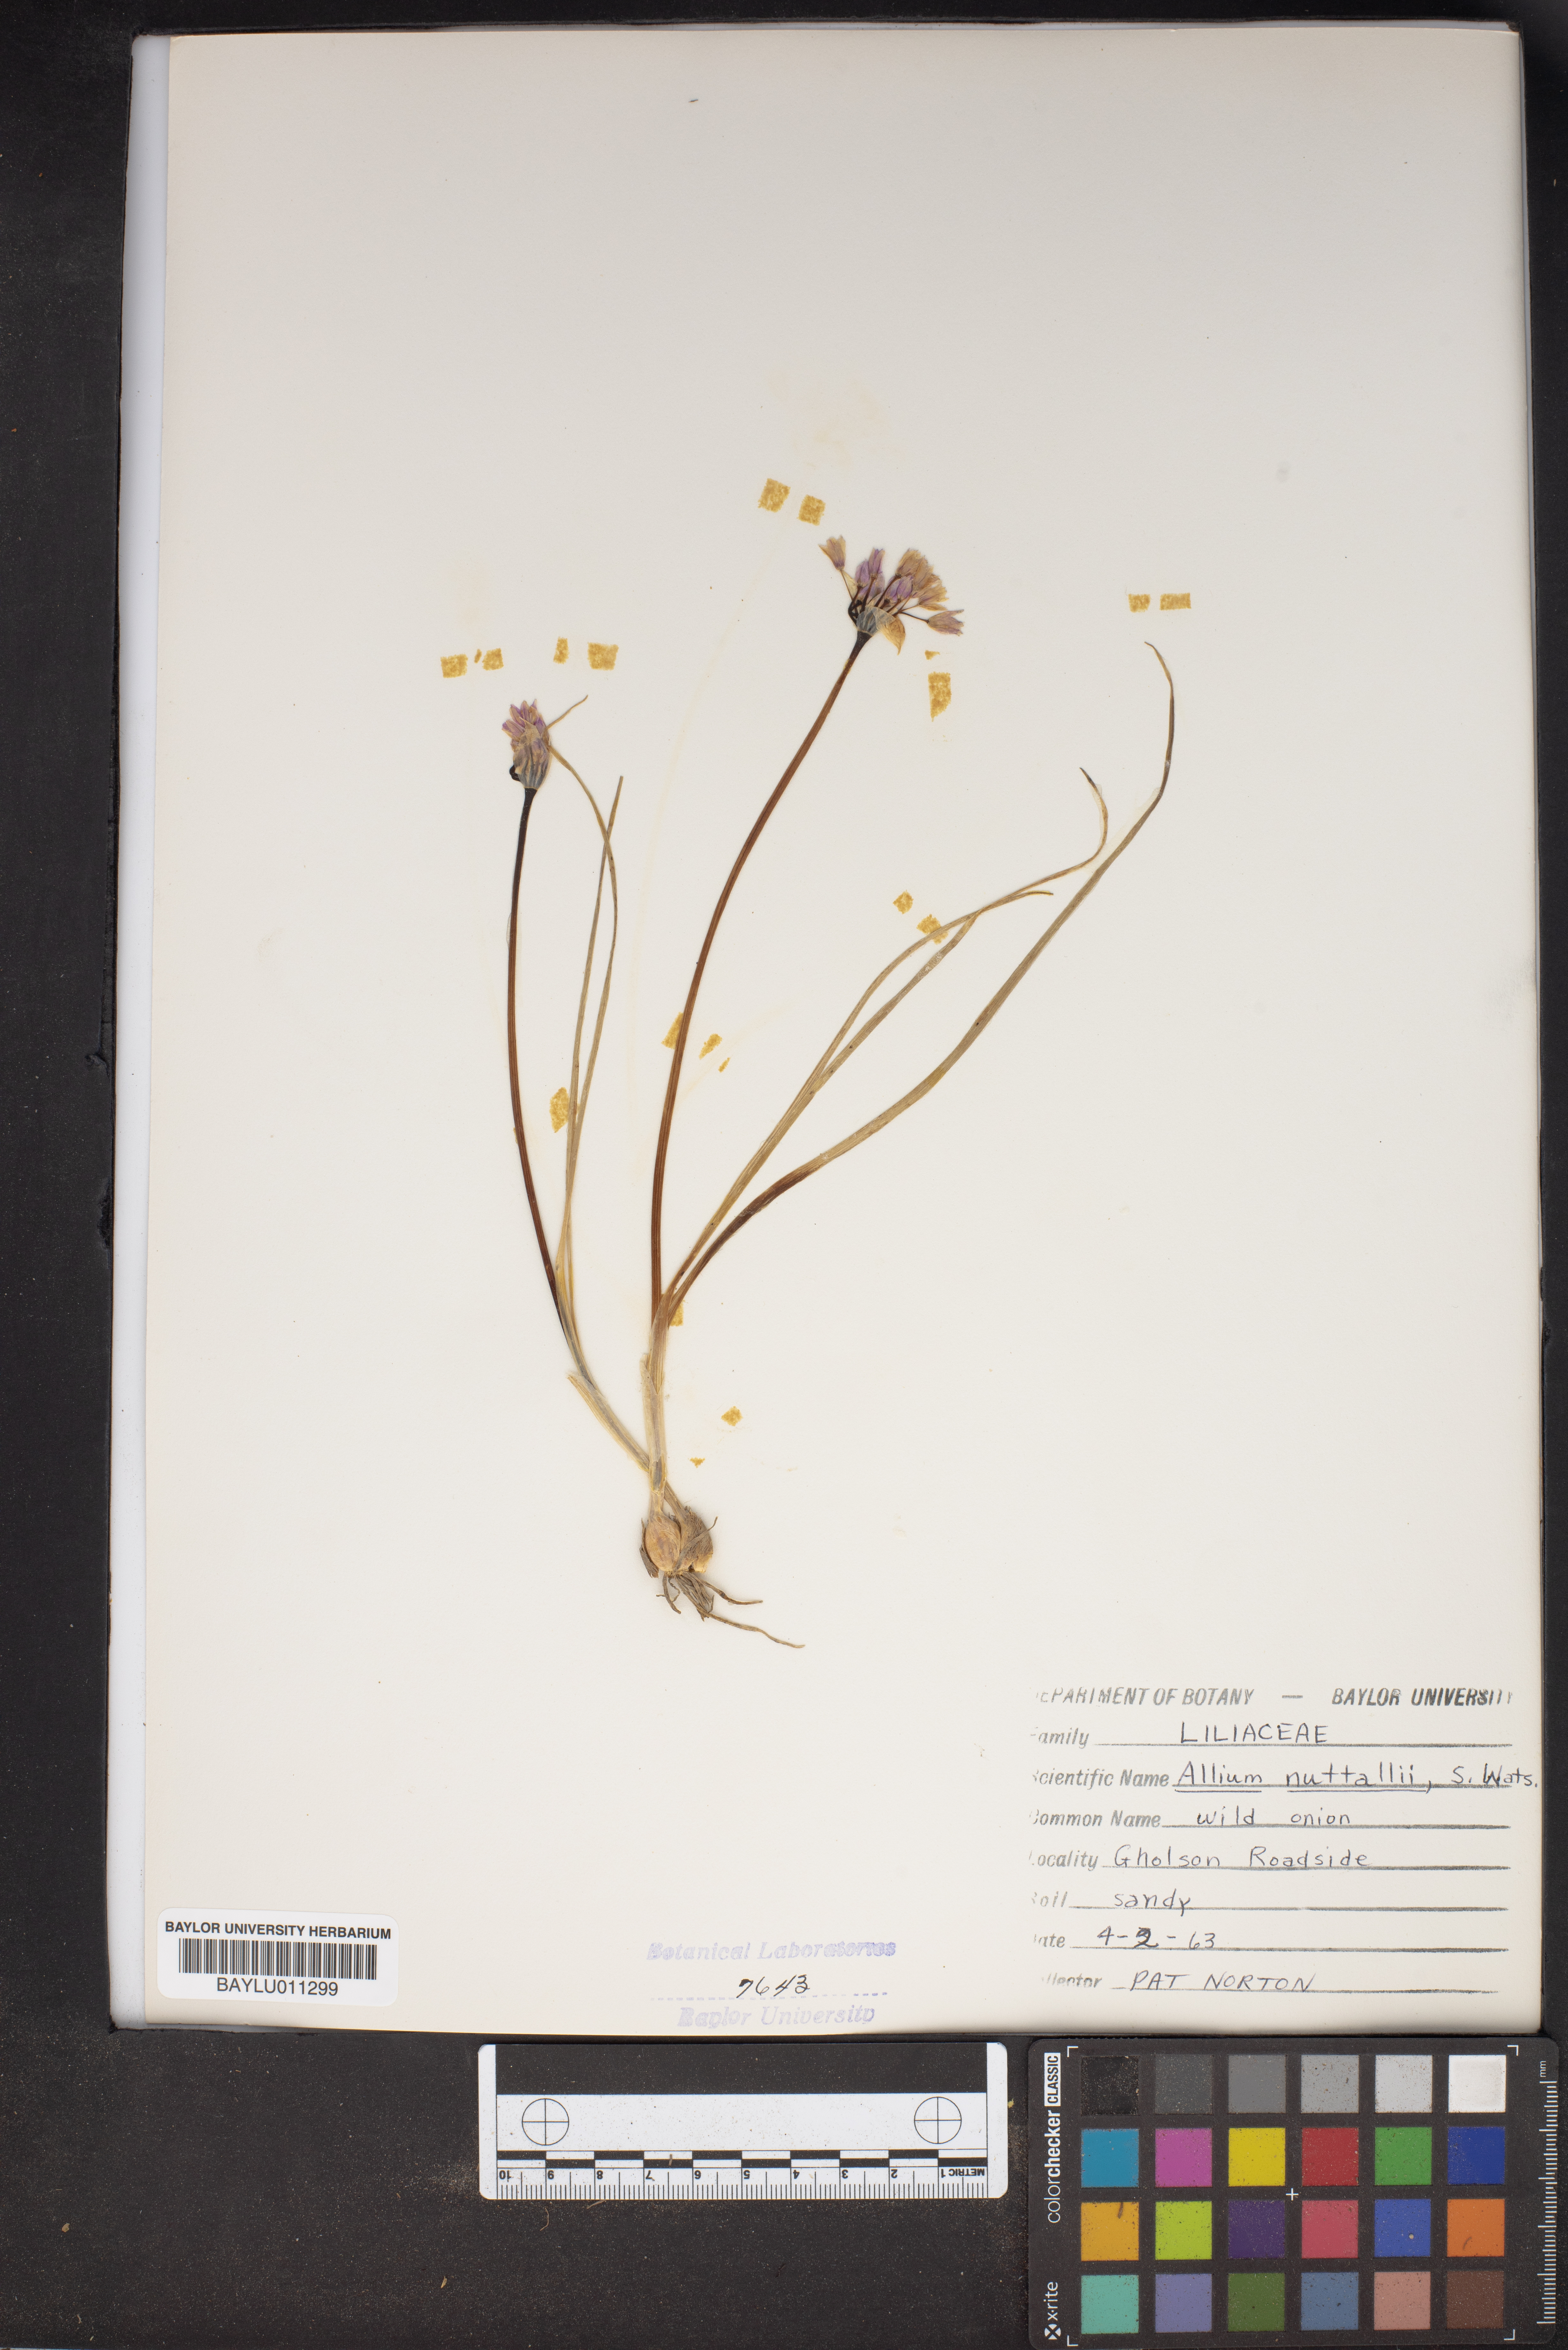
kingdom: Plantae
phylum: Tracheophyta
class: Liliopsida
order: Asparagales
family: Amaryllidaceae
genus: Allium
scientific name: Allium drummondii
